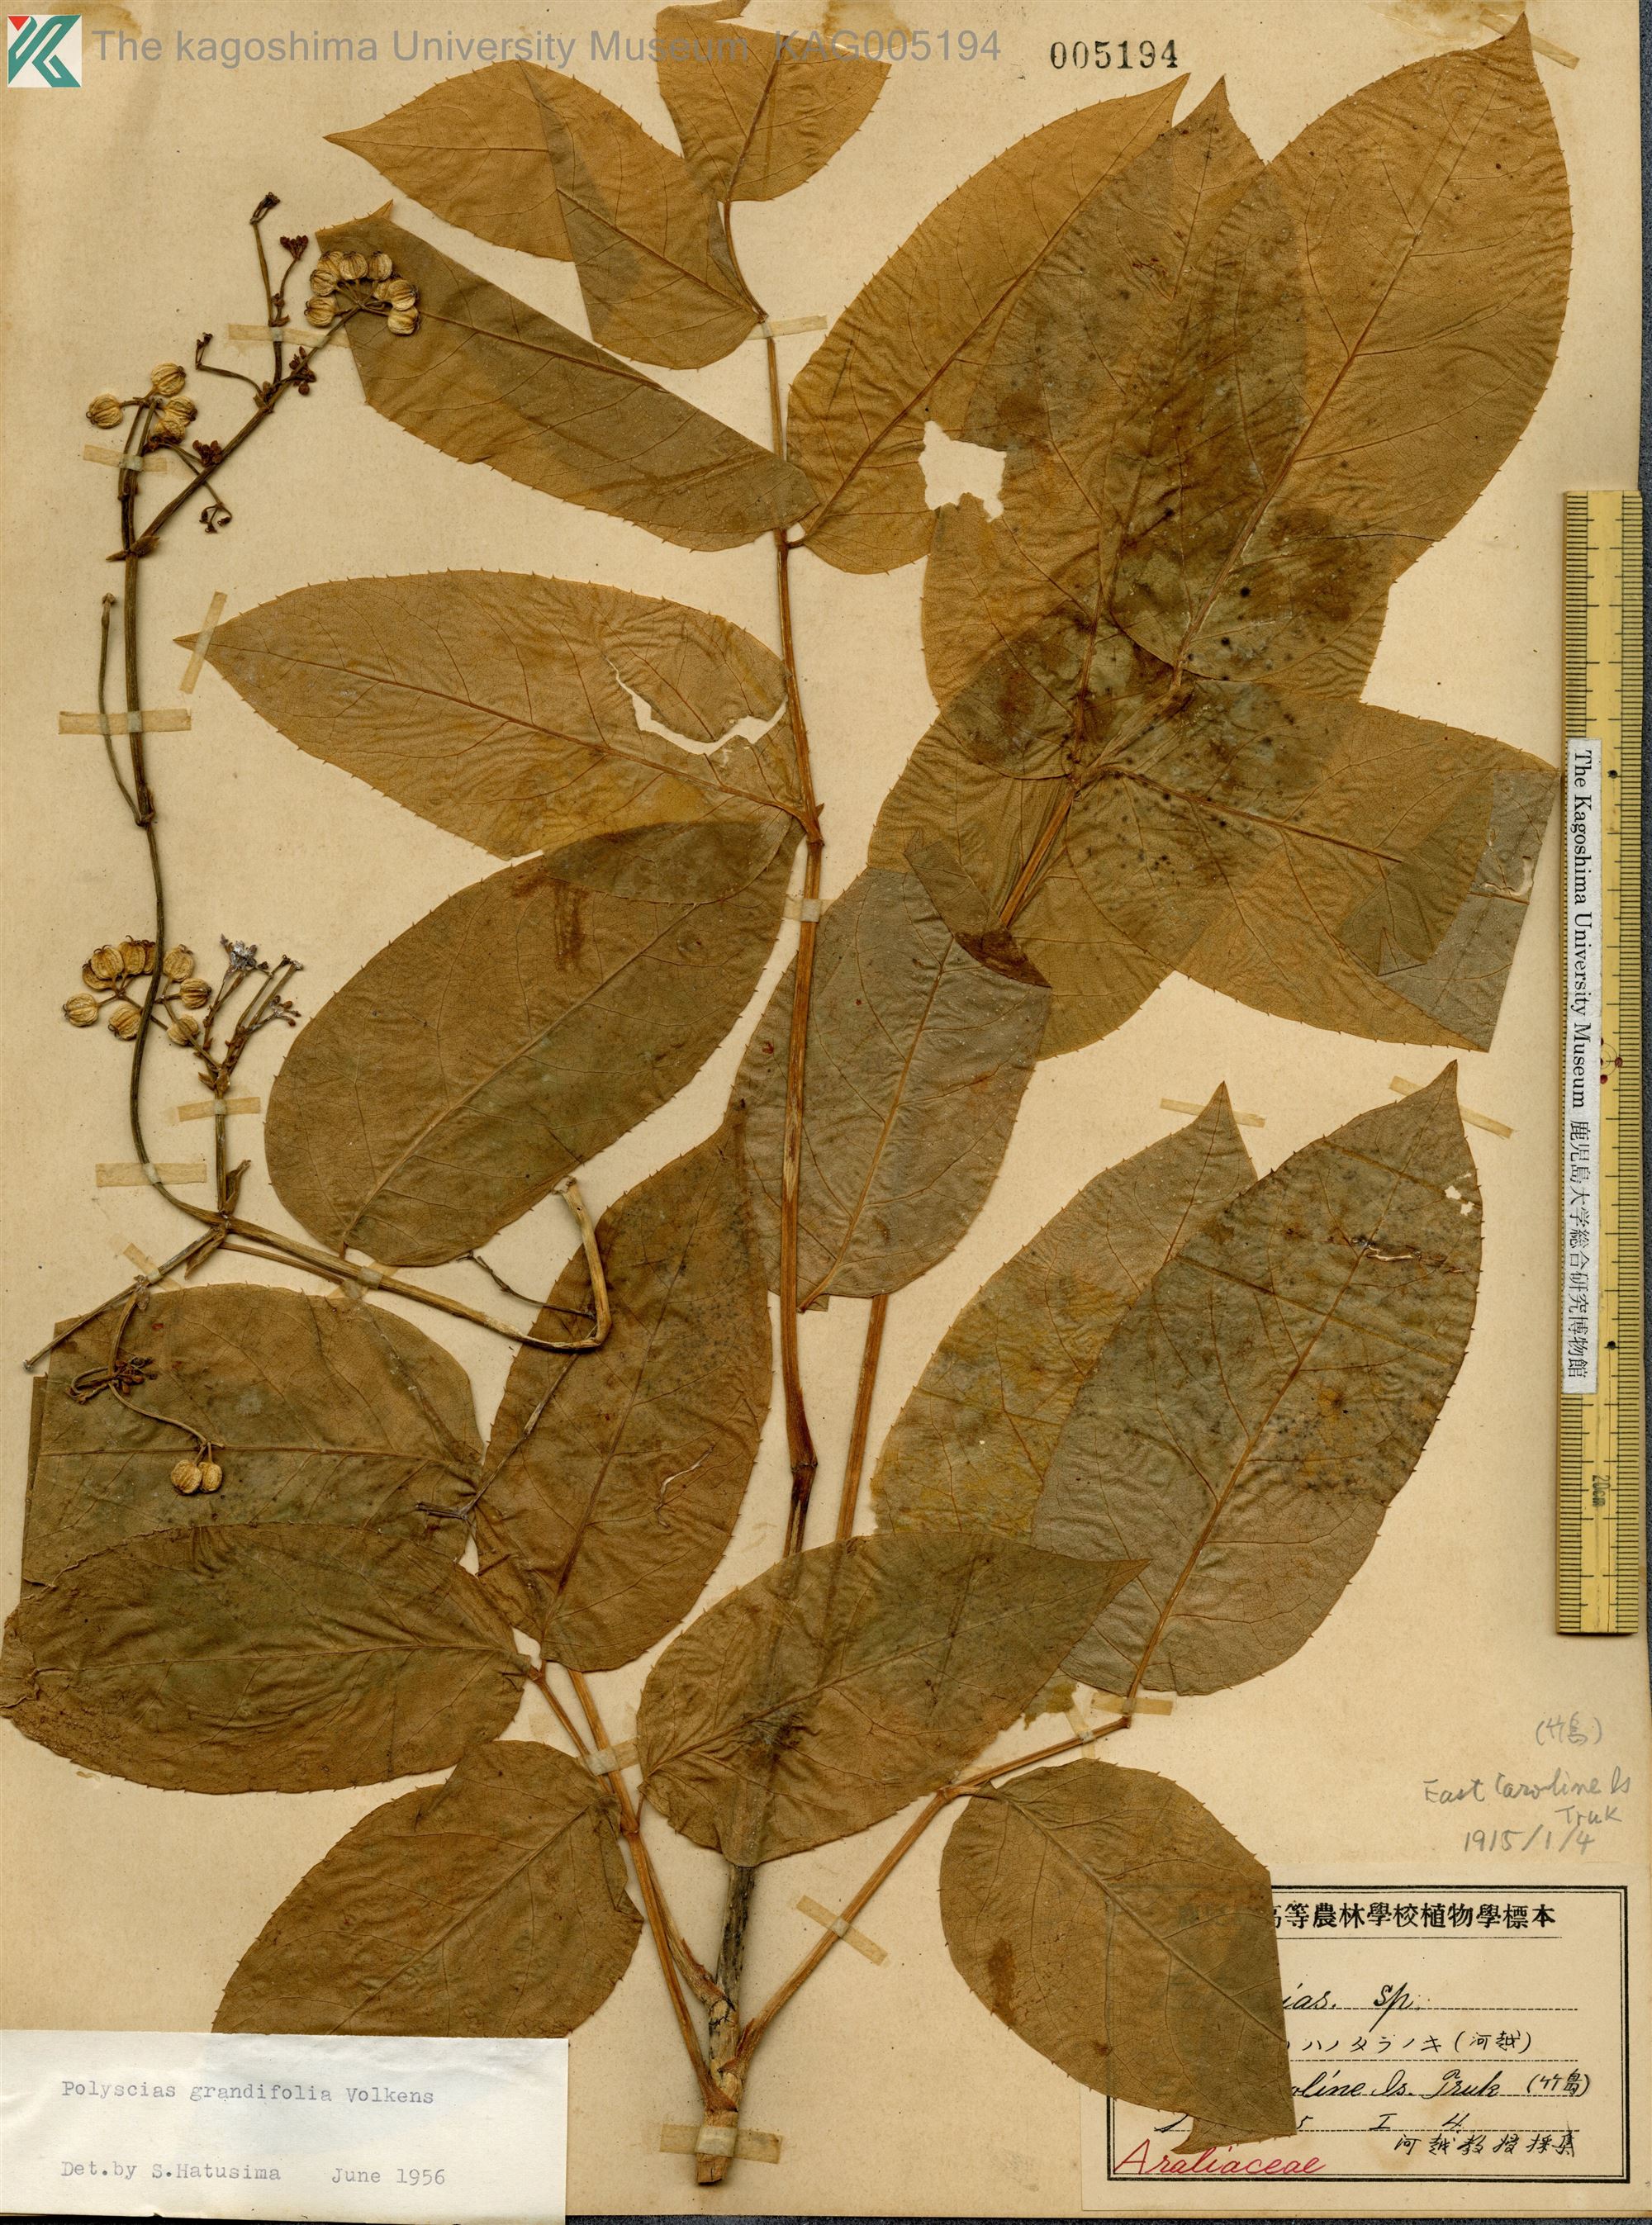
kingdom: Plantae
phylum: Tracheophyta
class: Magnoliopsida
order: Apiales
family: Araliaceae
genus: Polyscias
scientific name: Polyscias macgillivrayi
